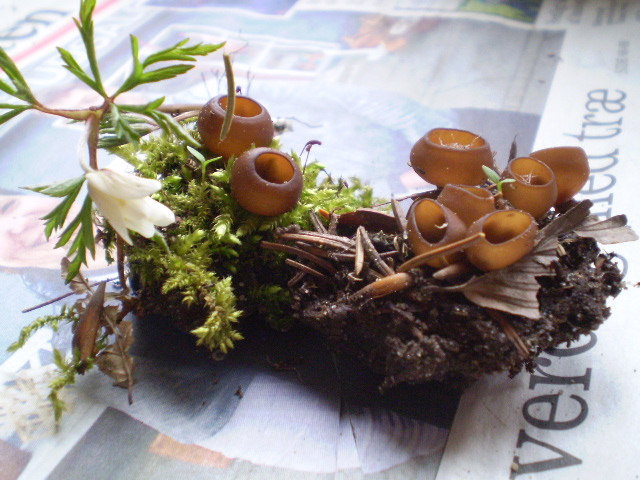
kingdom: Fungi
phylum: Ascomycota
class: Leotiomycetes
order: Helotiales
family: Sclerotiniaceae
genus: Dumontinia
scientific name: Dumontinia tuberosa
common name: anemone-knoldskive
